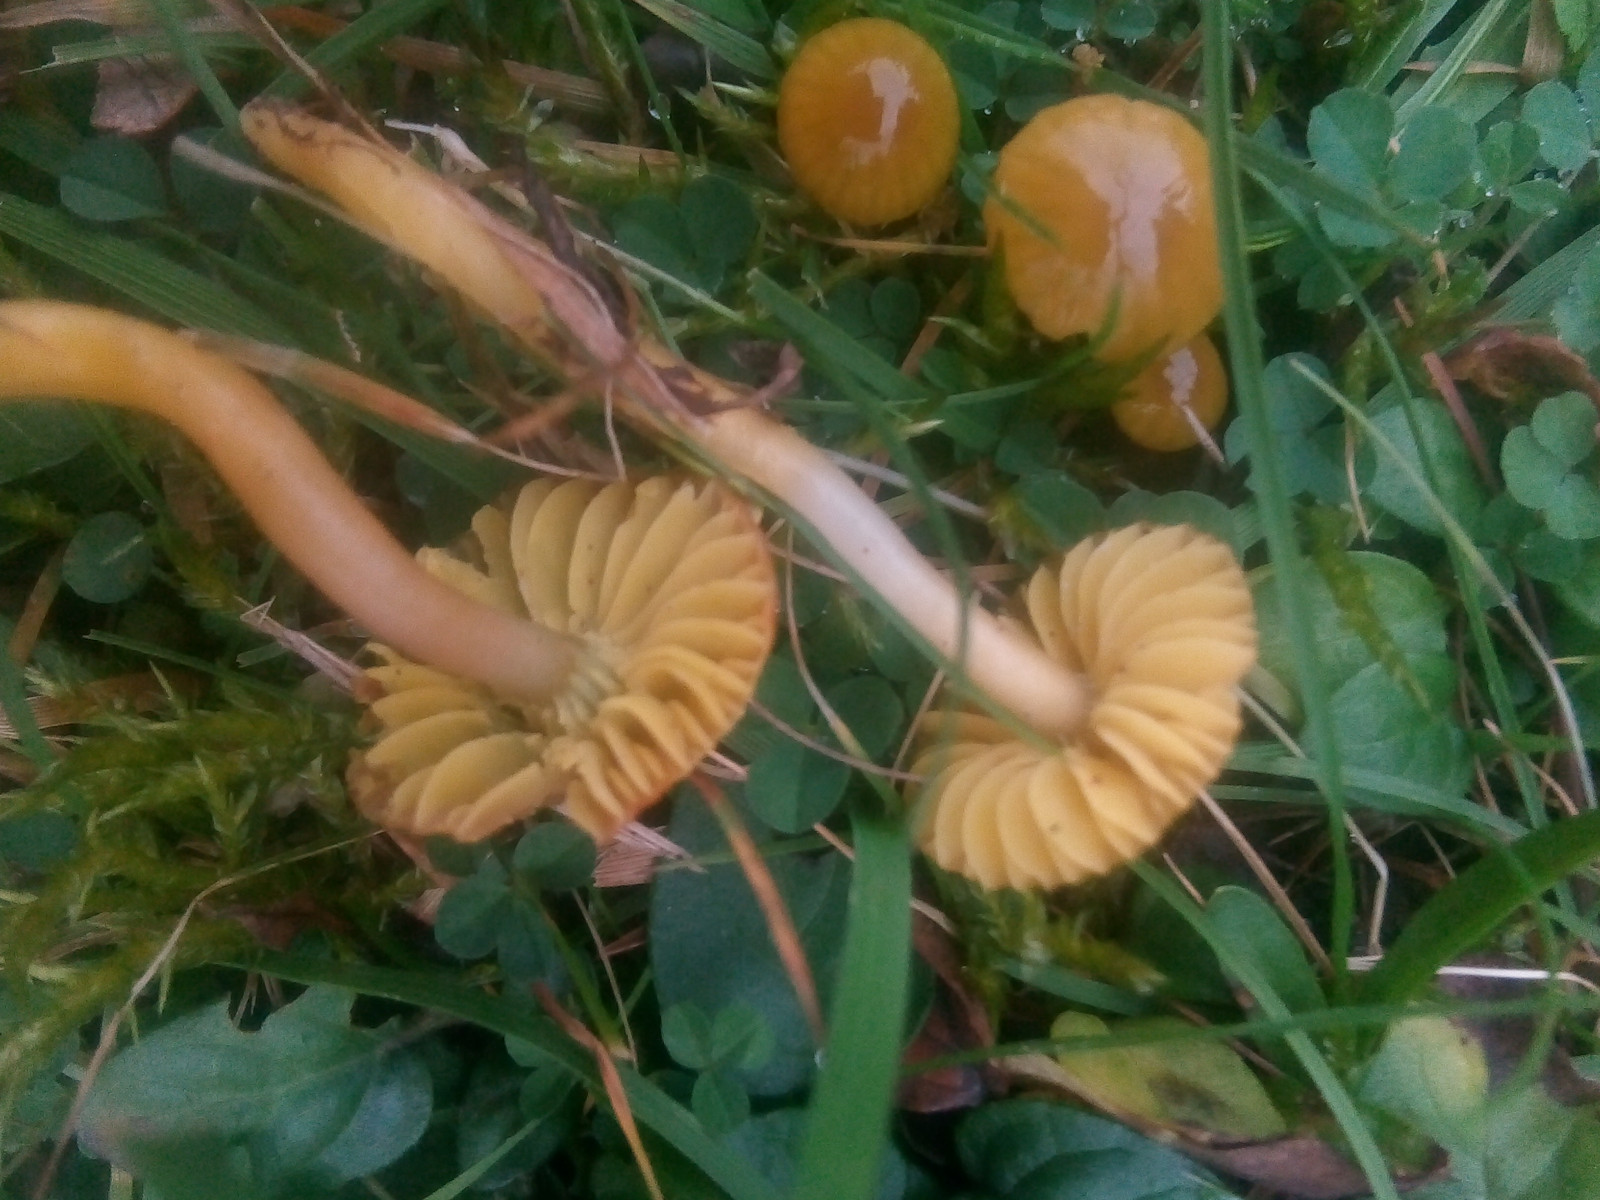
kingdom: Fungi
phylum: Basidiomycota
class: Agaricomycetes
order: Agaricales
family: Hygrophoraceae
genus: Gliophorus
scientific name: Gliophorus psittacinus
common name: papegøje-vokshat
